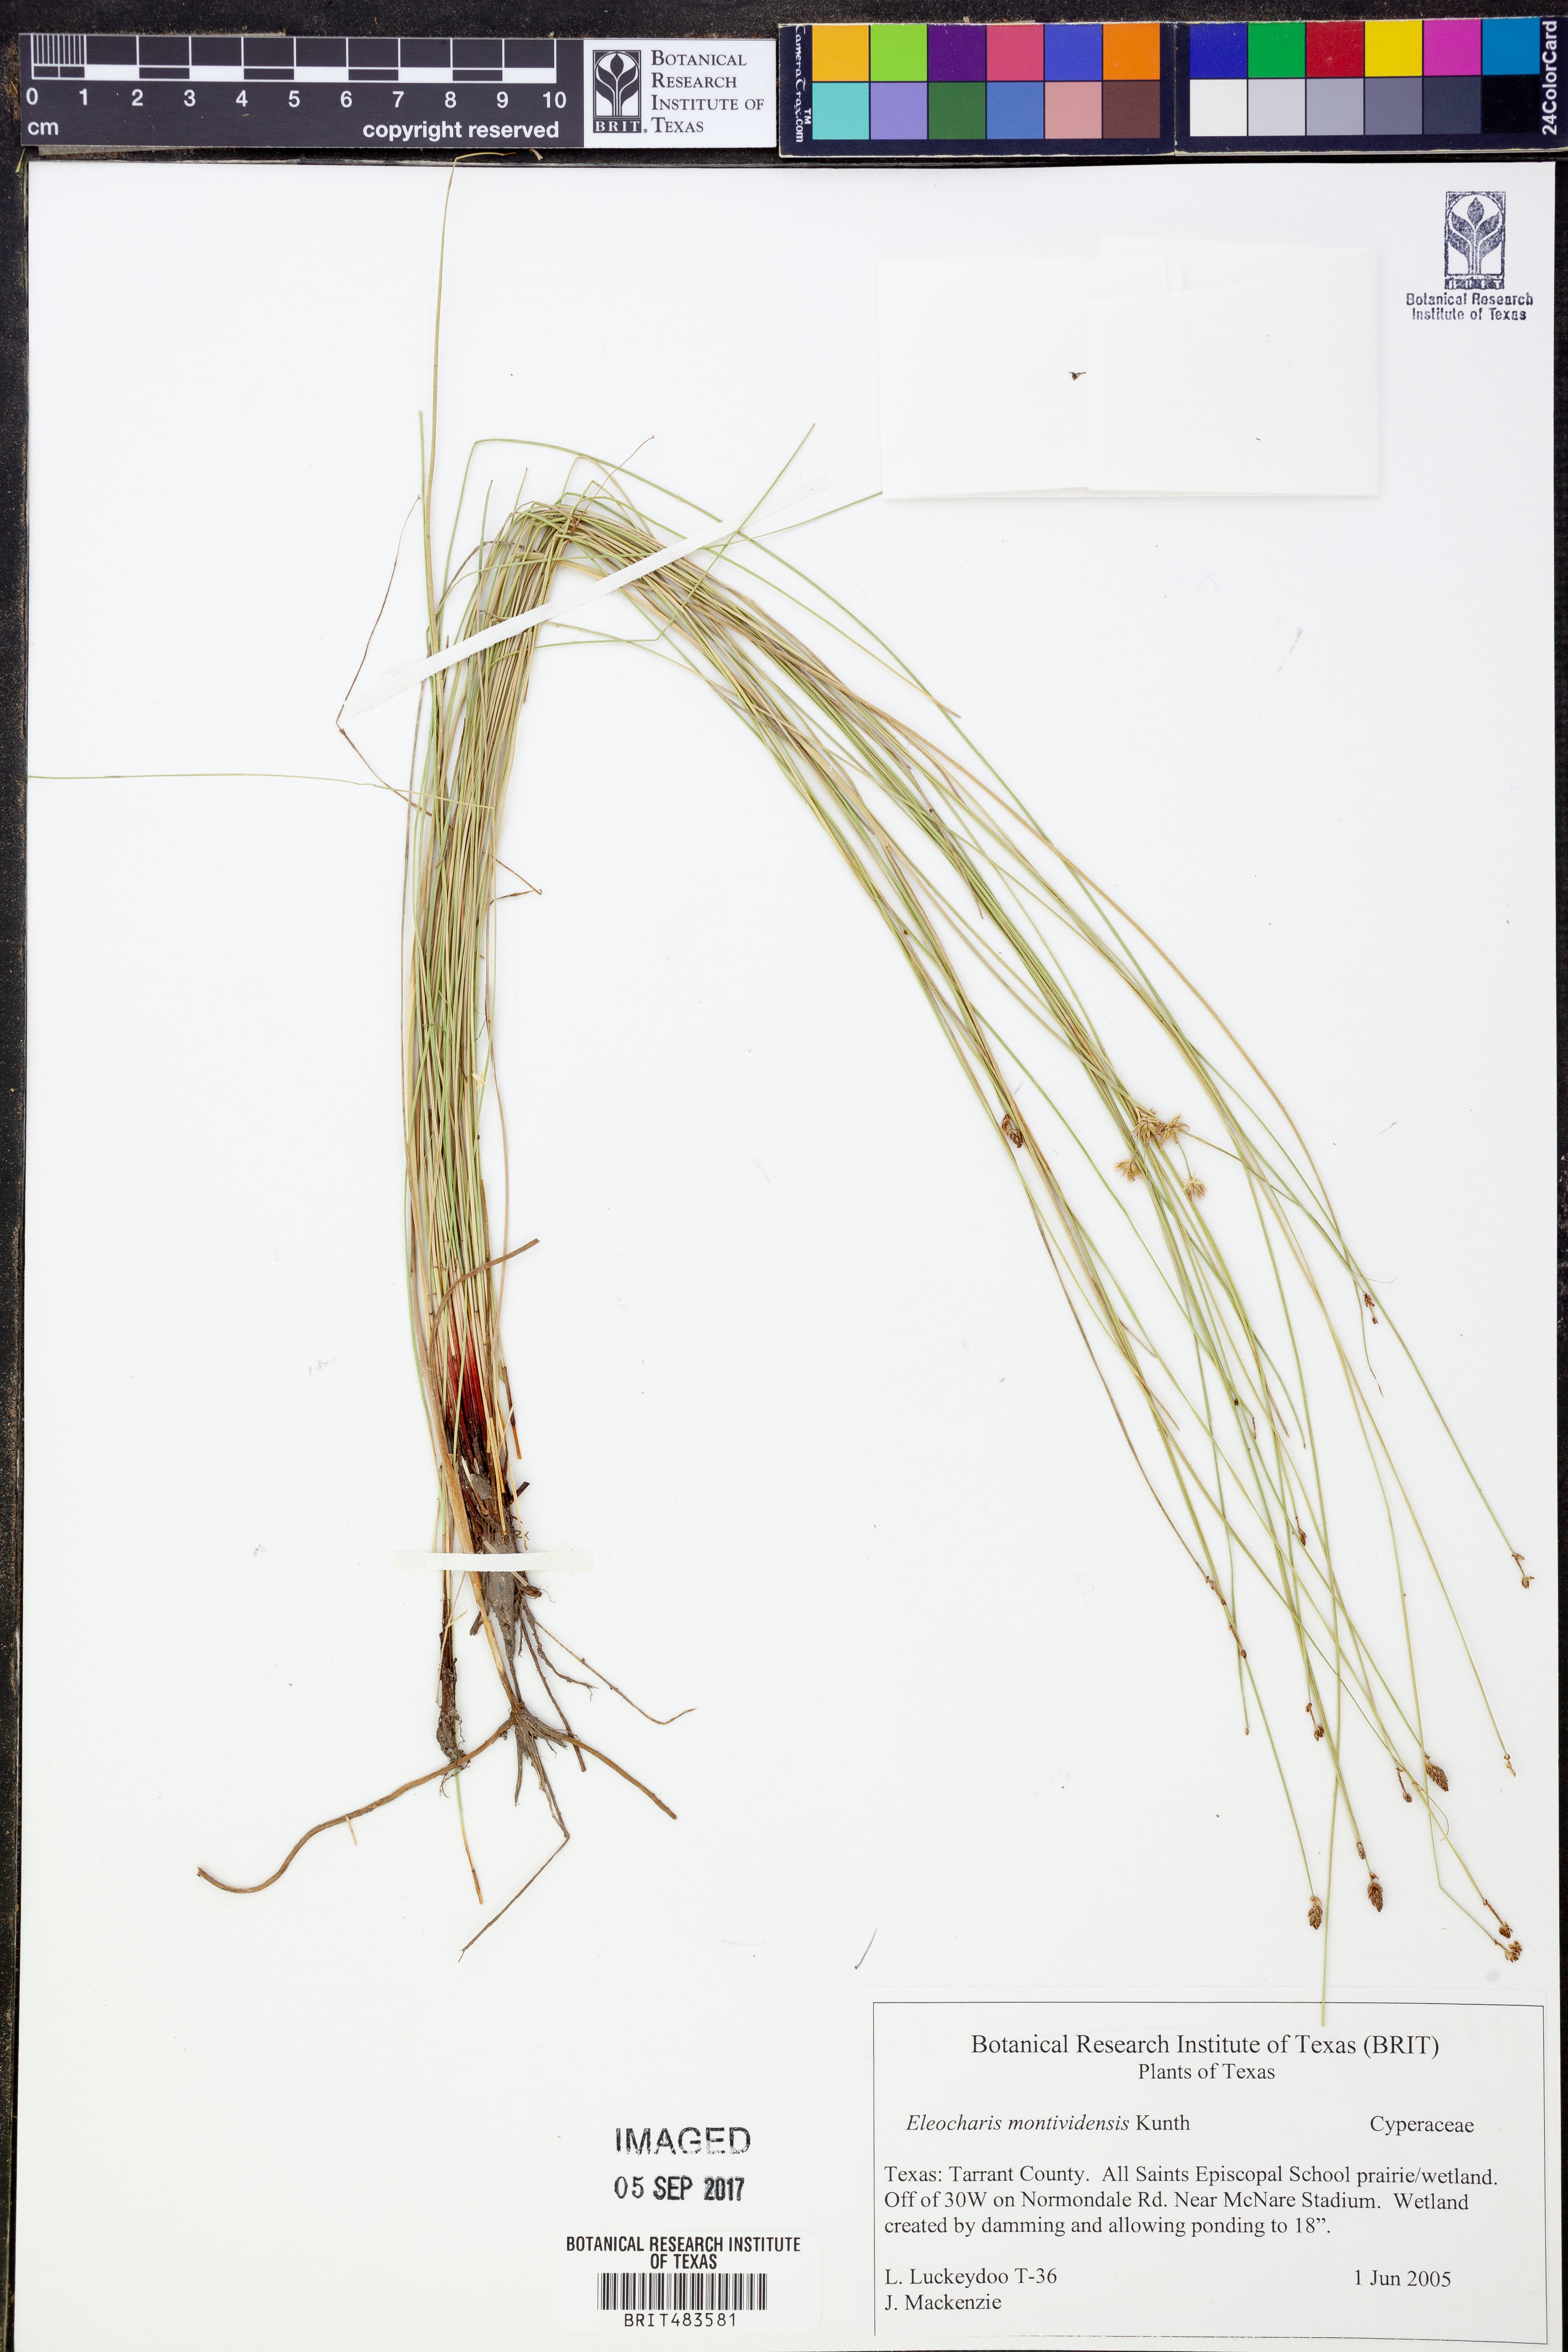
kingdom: Plantae
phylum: Tracheophyta
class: Liliopsida
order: Poales
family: Cyperaceae
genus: Eleocharis
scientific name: Eleocharis montevidensis
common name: Sand spike-rush
